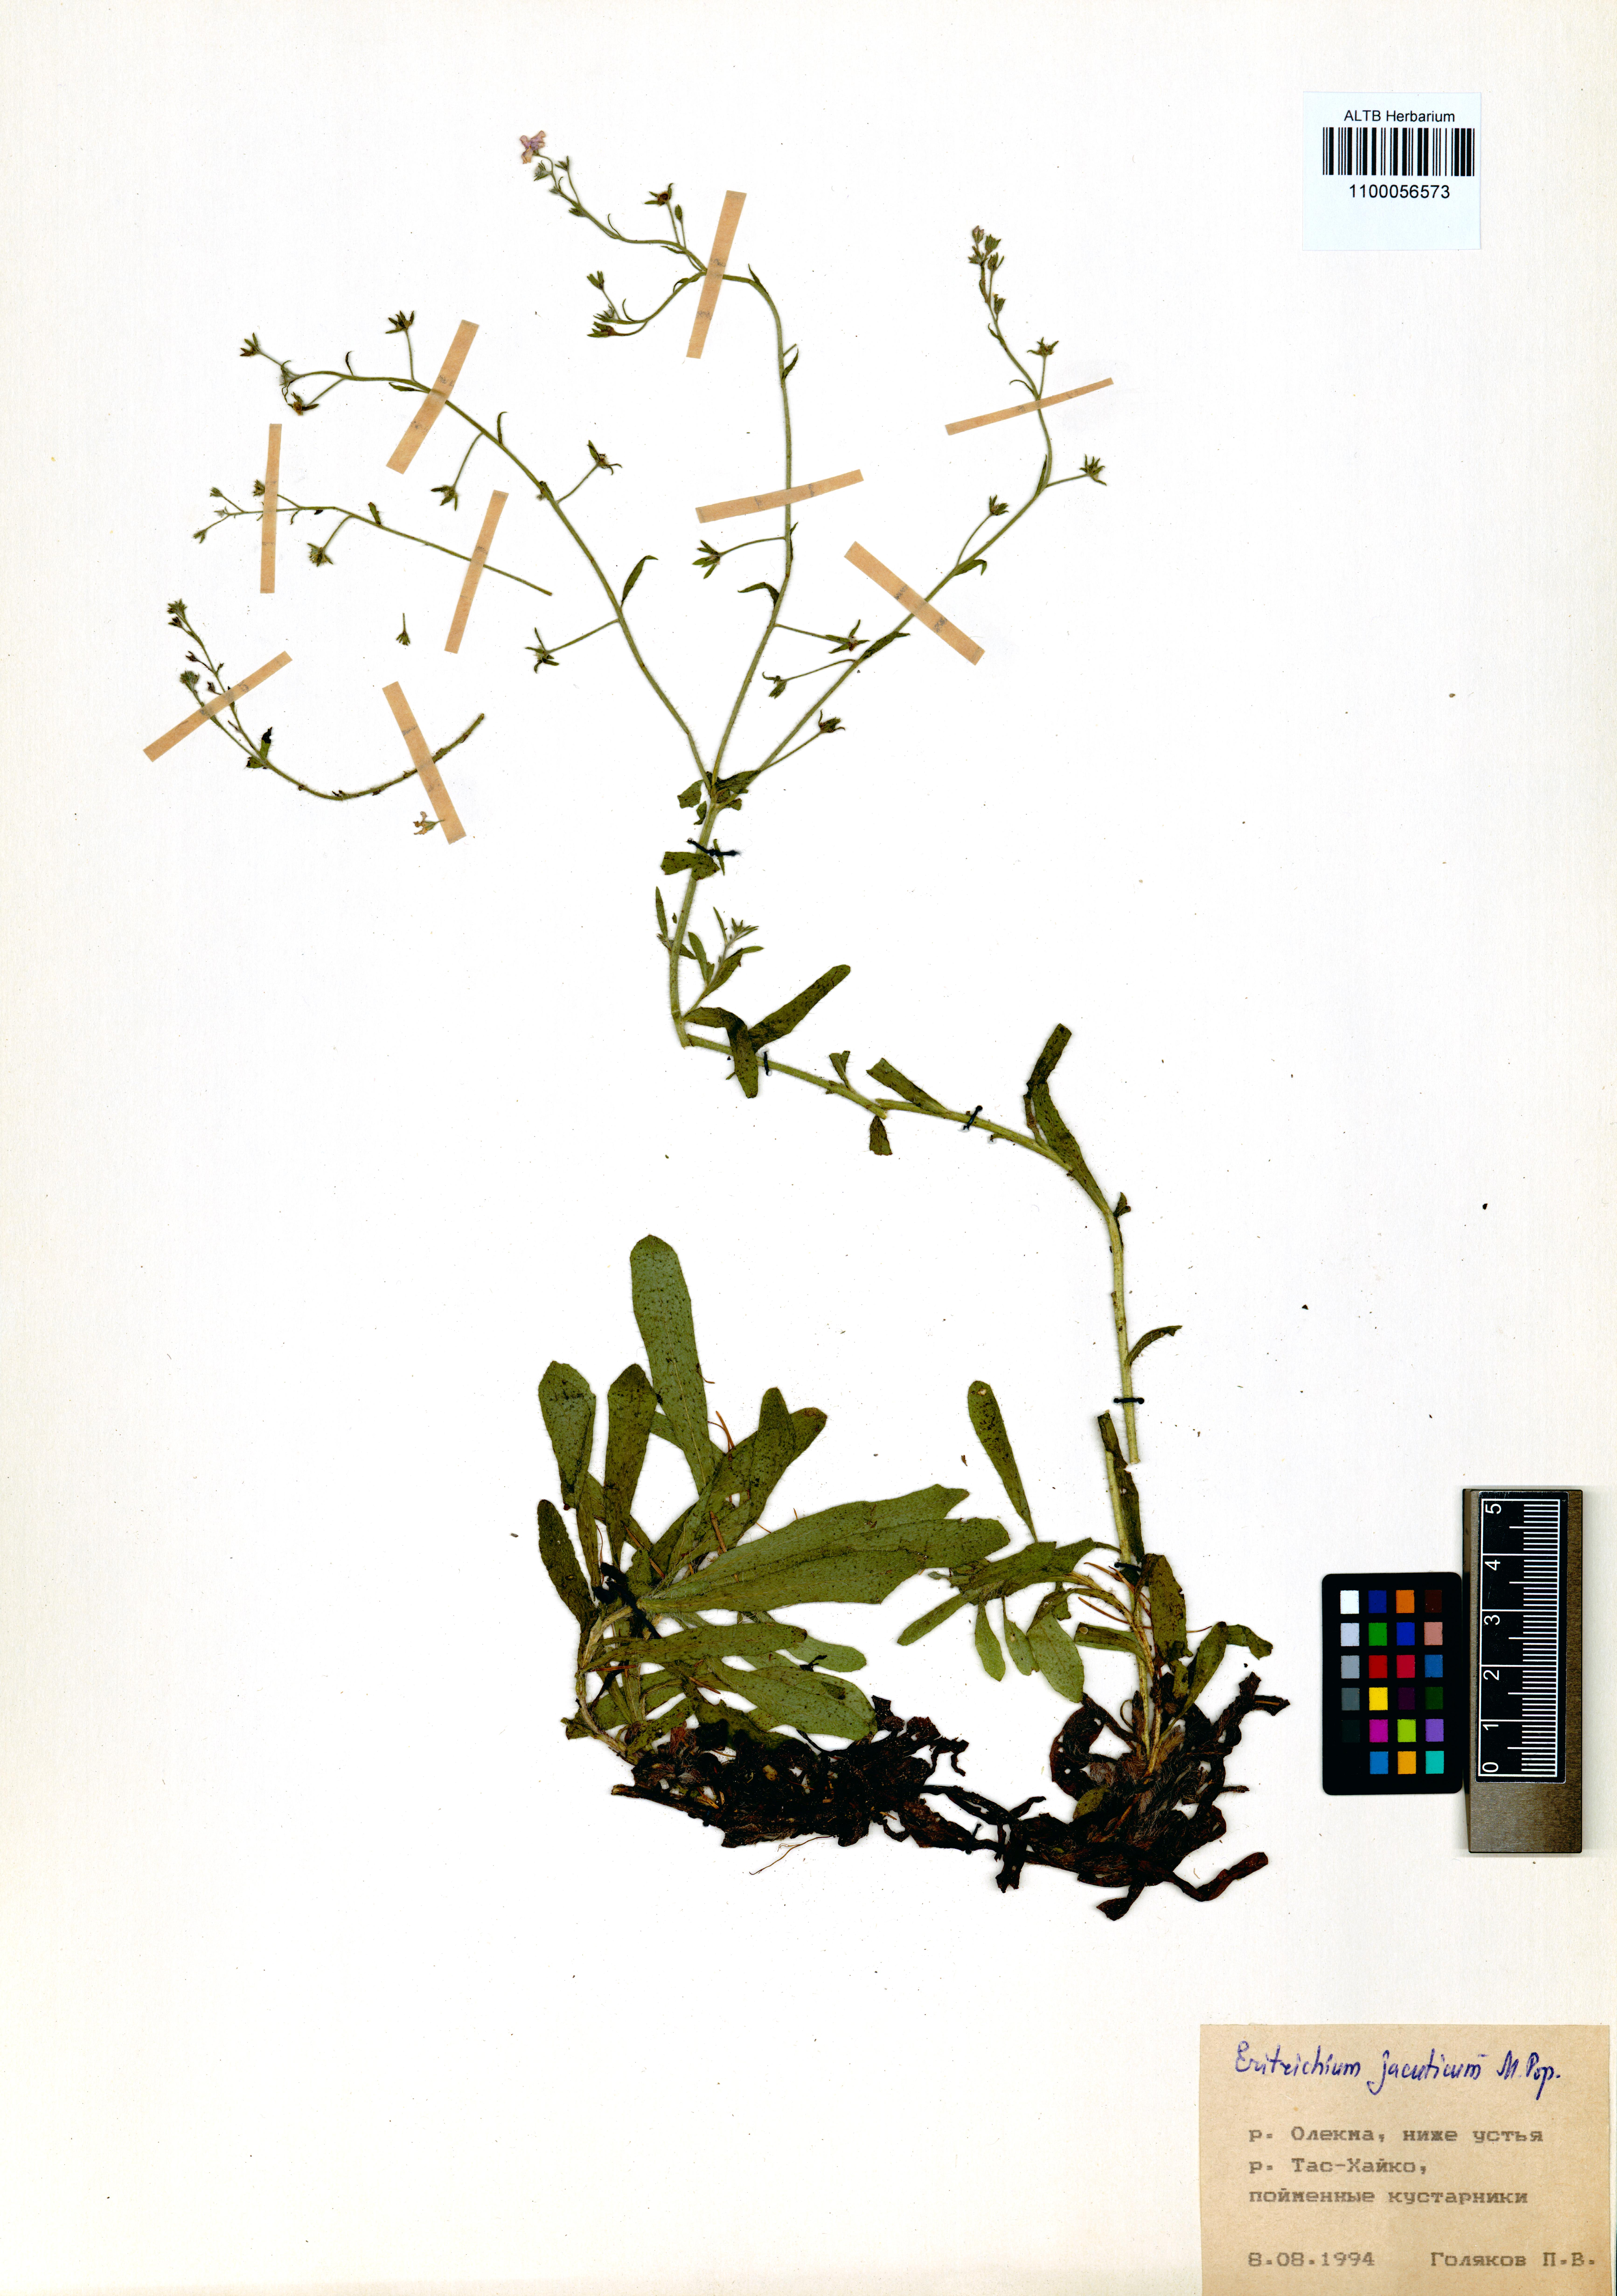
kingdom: Plantae
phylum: Tracheophyta
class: Magnoliopsida
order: Boraginales
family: Boraginaceae
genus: Eritrichium
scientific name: Eritrichium jacuticum
